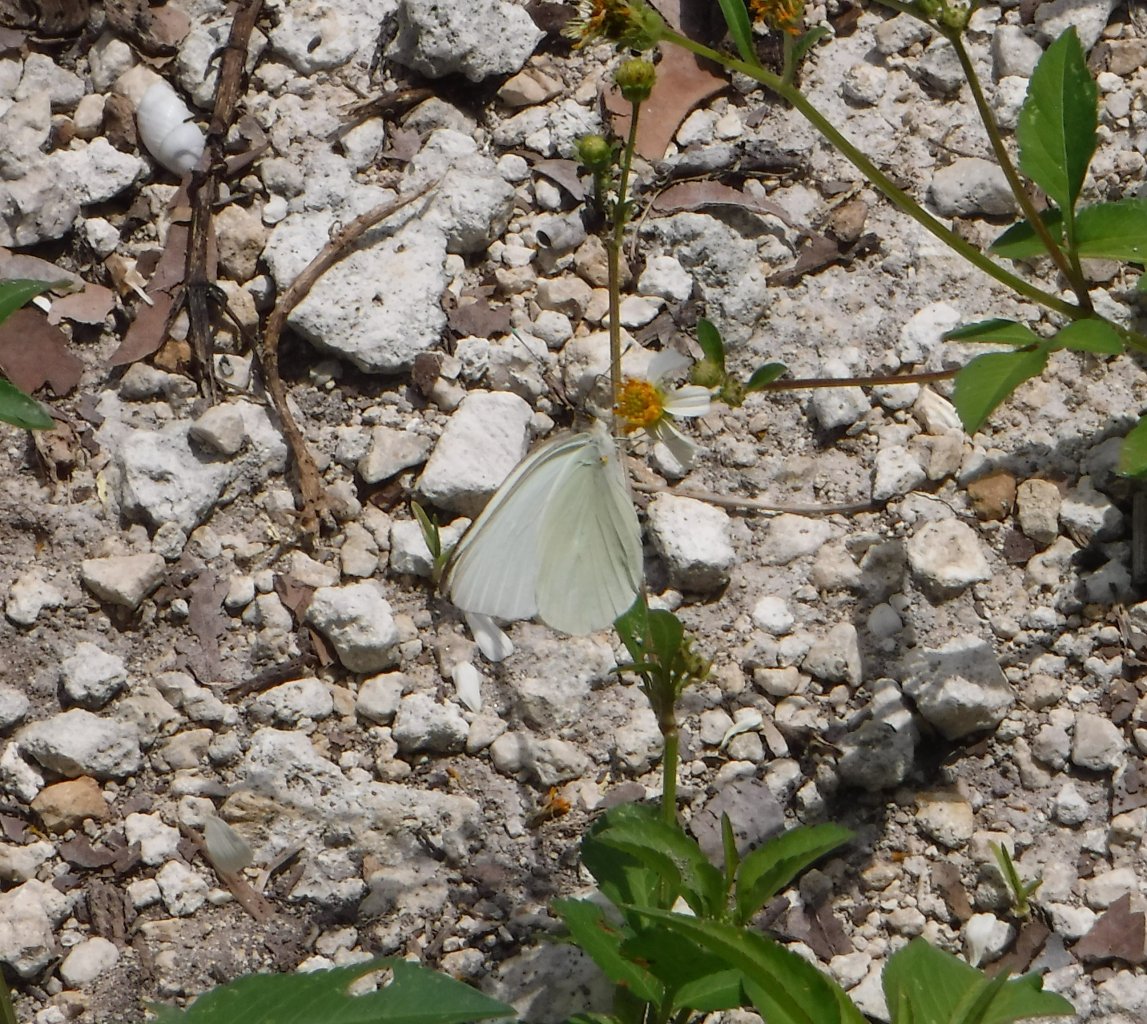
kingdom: Animalia
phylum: Arthropoda
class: Insecta
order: Lepidoptera
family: Pieridae
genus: Ascia
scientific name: Ascia monuste
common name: Great Southern White
